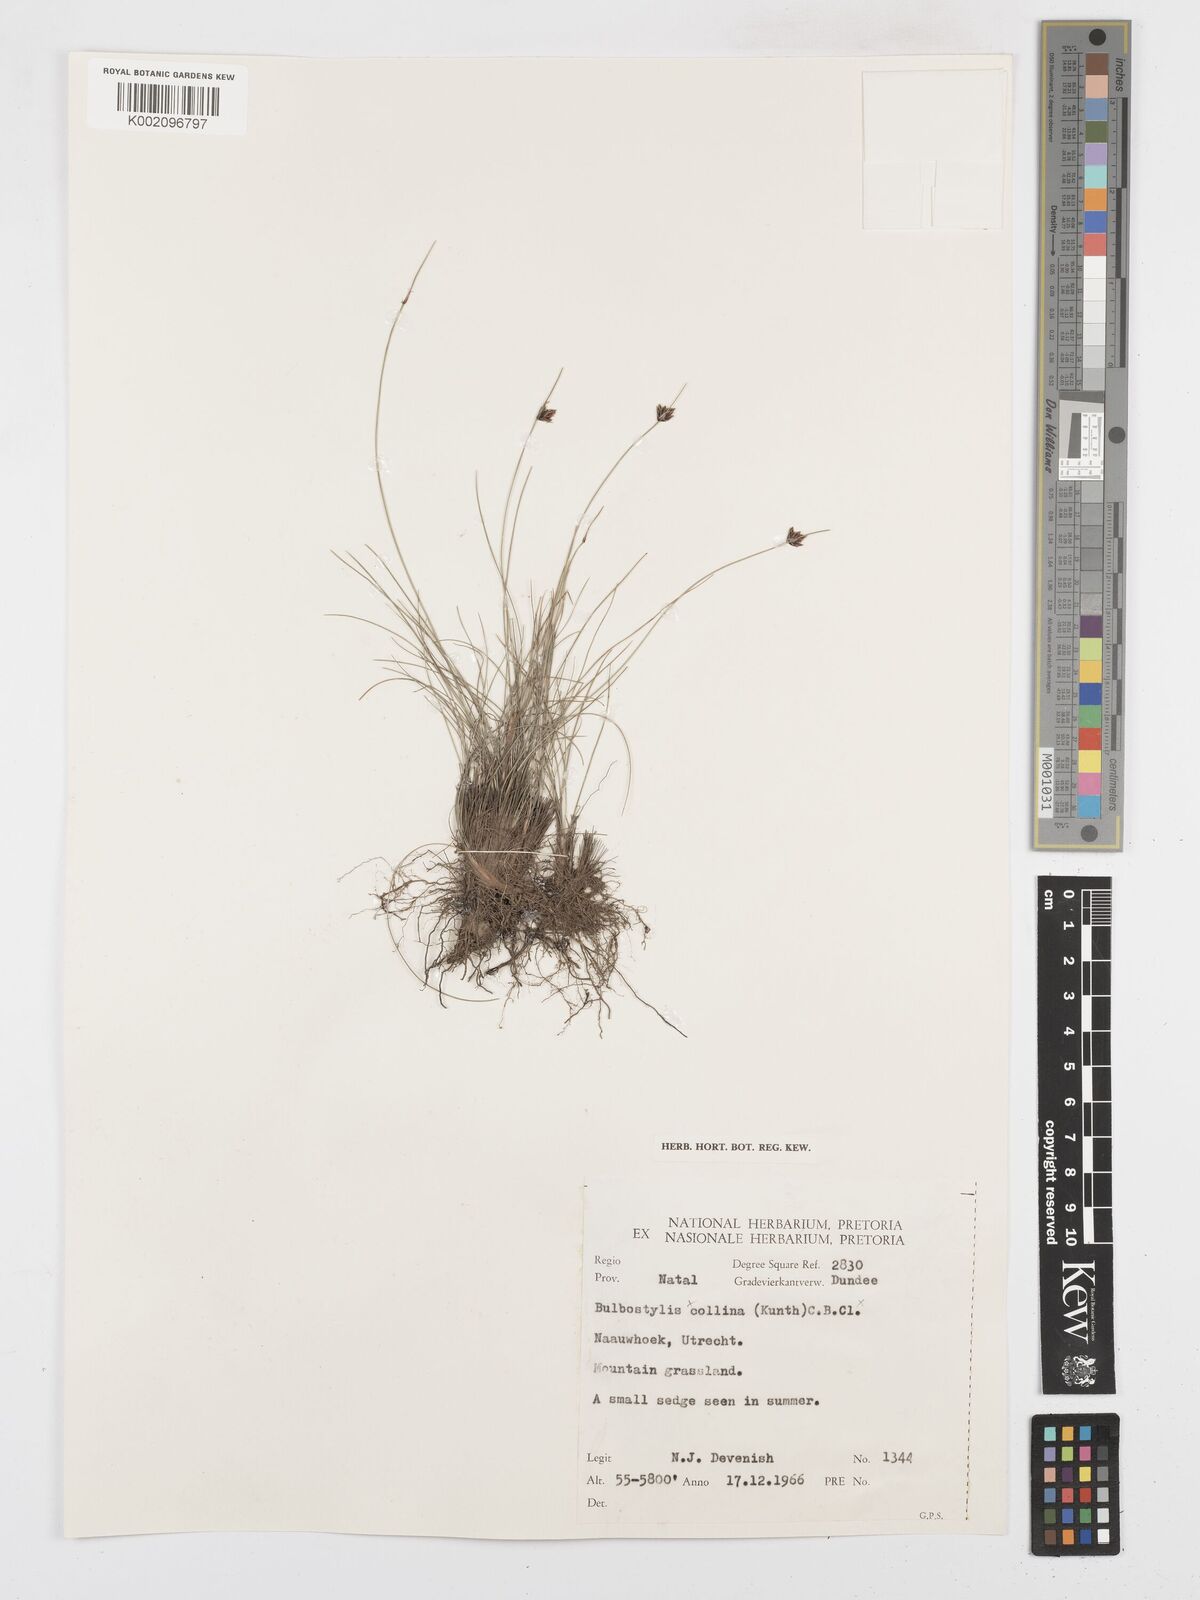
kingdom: Plantae
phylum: Tracheophyta
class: Liliopsida
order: Poales
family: Cyperaceae
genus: Bulbostylis
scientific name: Bulbostylis
